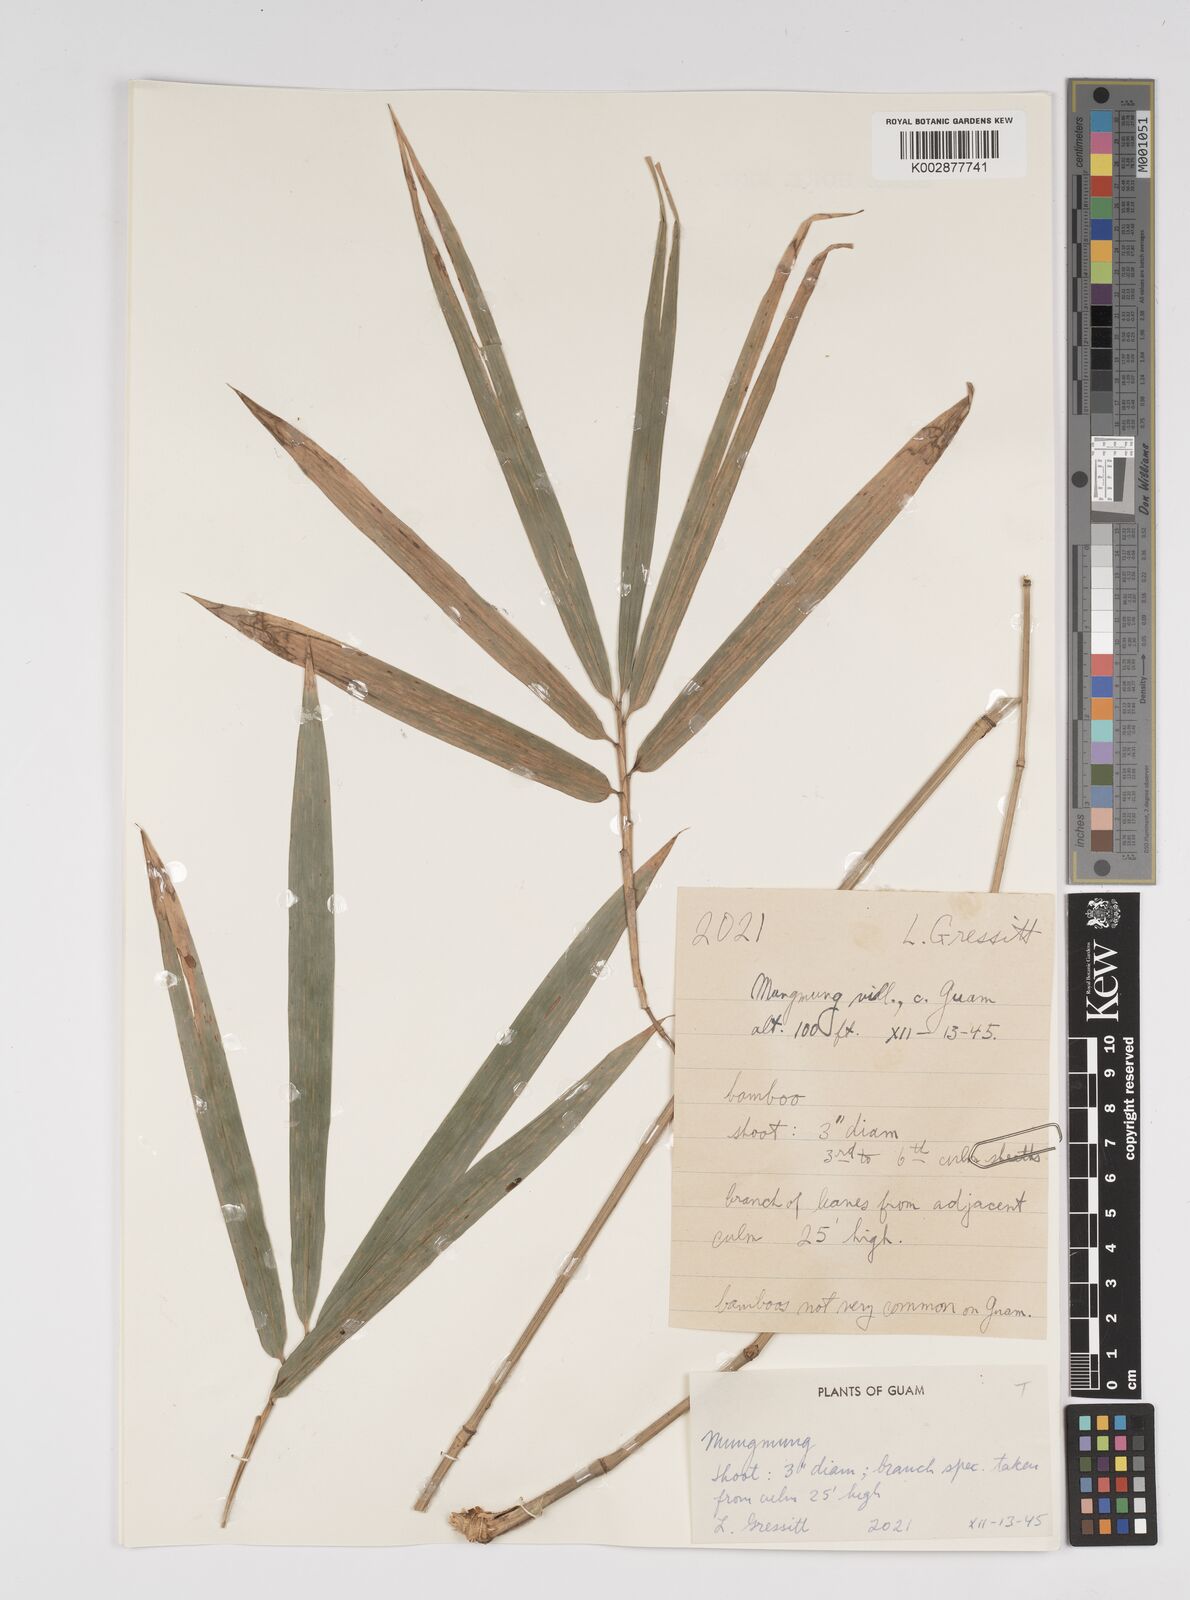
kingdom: Plantae
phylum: Tracheophyta
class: Liliopsida
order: Poales
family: Poaceae
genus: Bambusa
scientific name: Bambusa vulgaris
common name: Common bamboo
